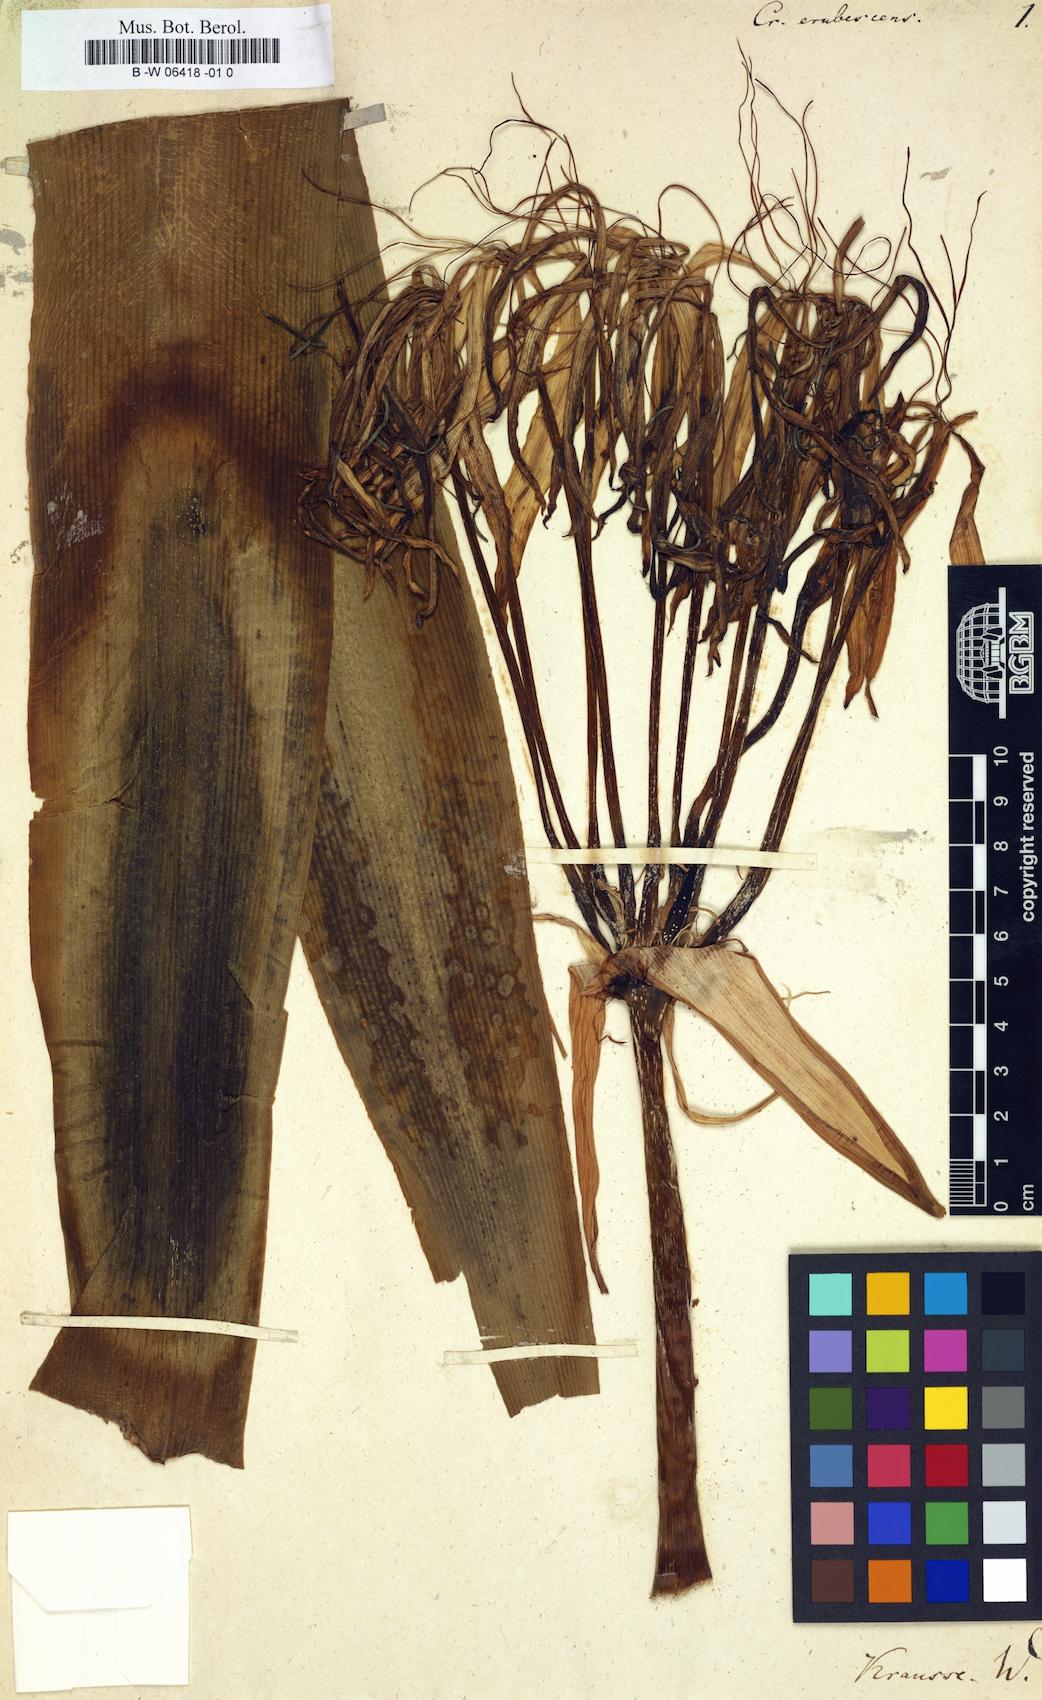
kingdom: Plantae
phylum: Tracheophyta
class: Liliopsida
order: Asparagales
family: Amaryllidaceae
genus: Crinum
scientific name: Crinum erubescens
